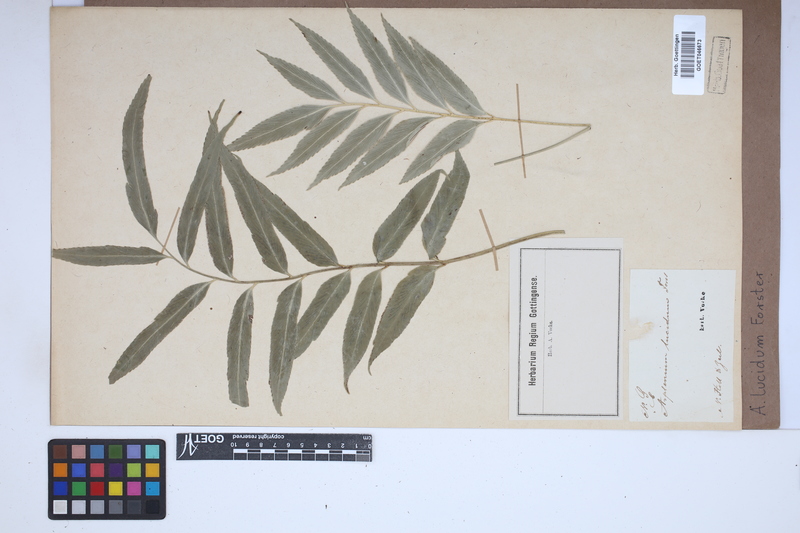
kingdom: Plantae
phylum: Tracheophyta
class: Polypodiopsida
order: Polypodiales
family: Aspleniaceae
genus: Asplenium
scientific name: Asplenium
